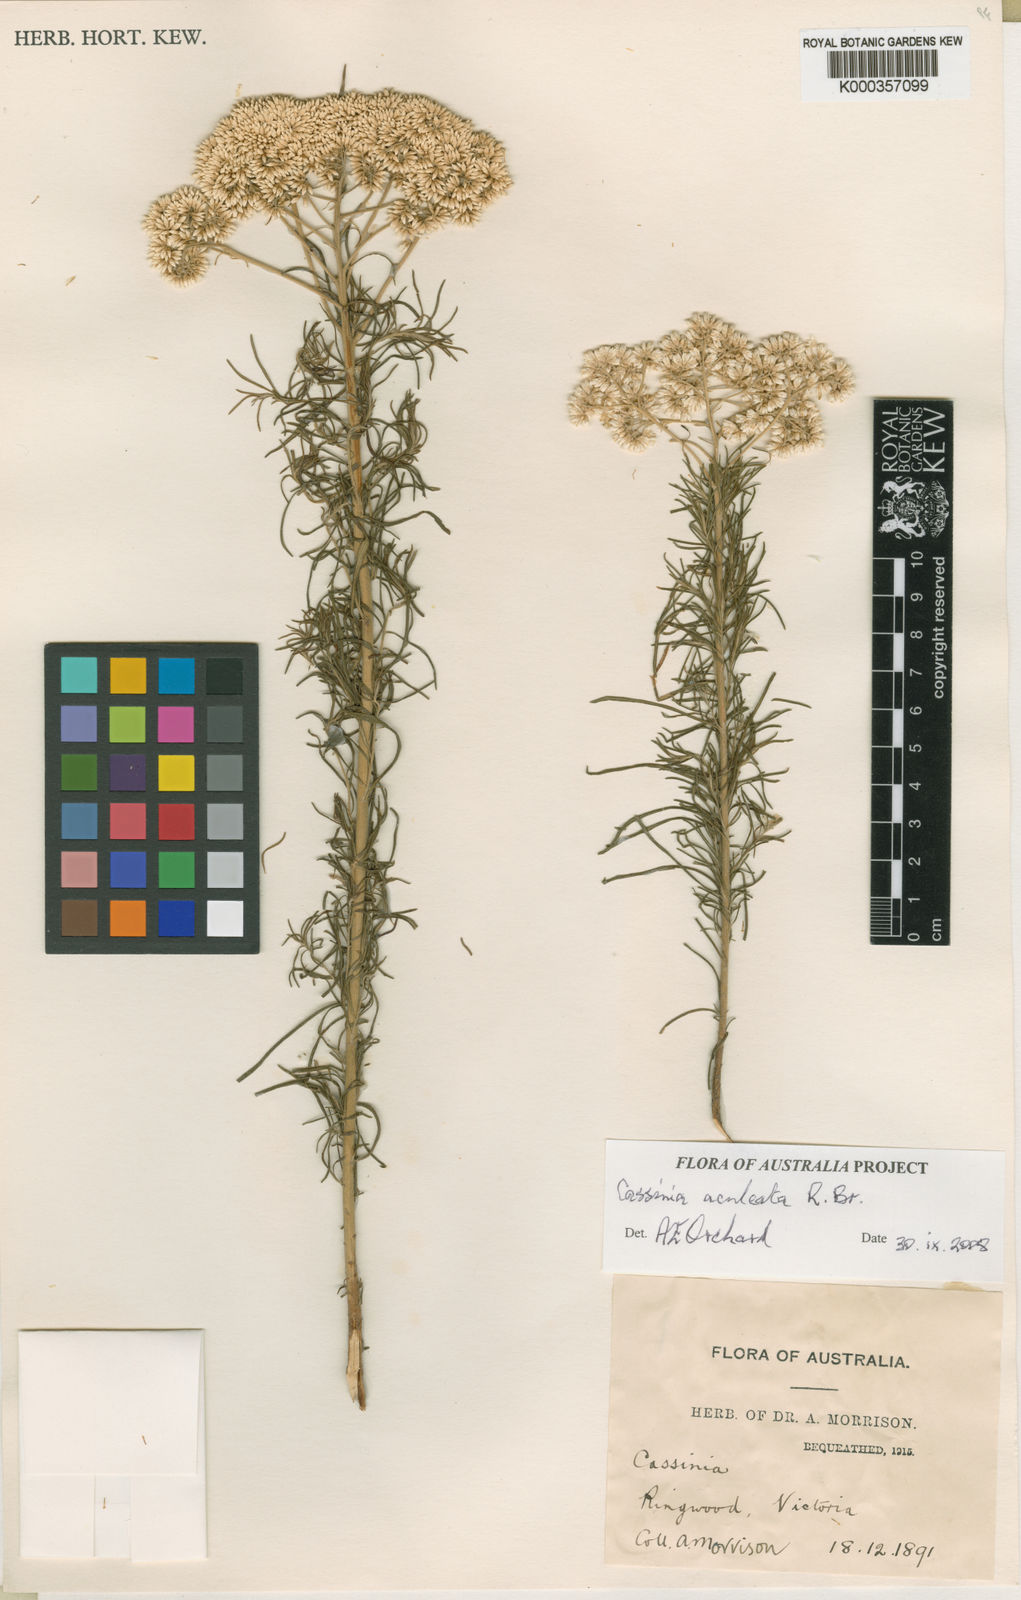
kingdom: Plantae
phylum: Tracheophyta
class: Magnoliopsida
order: Asterales
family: Asteraceae
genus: Cassinia
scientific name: Cassinia aculeata
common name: Australian tauhinu
